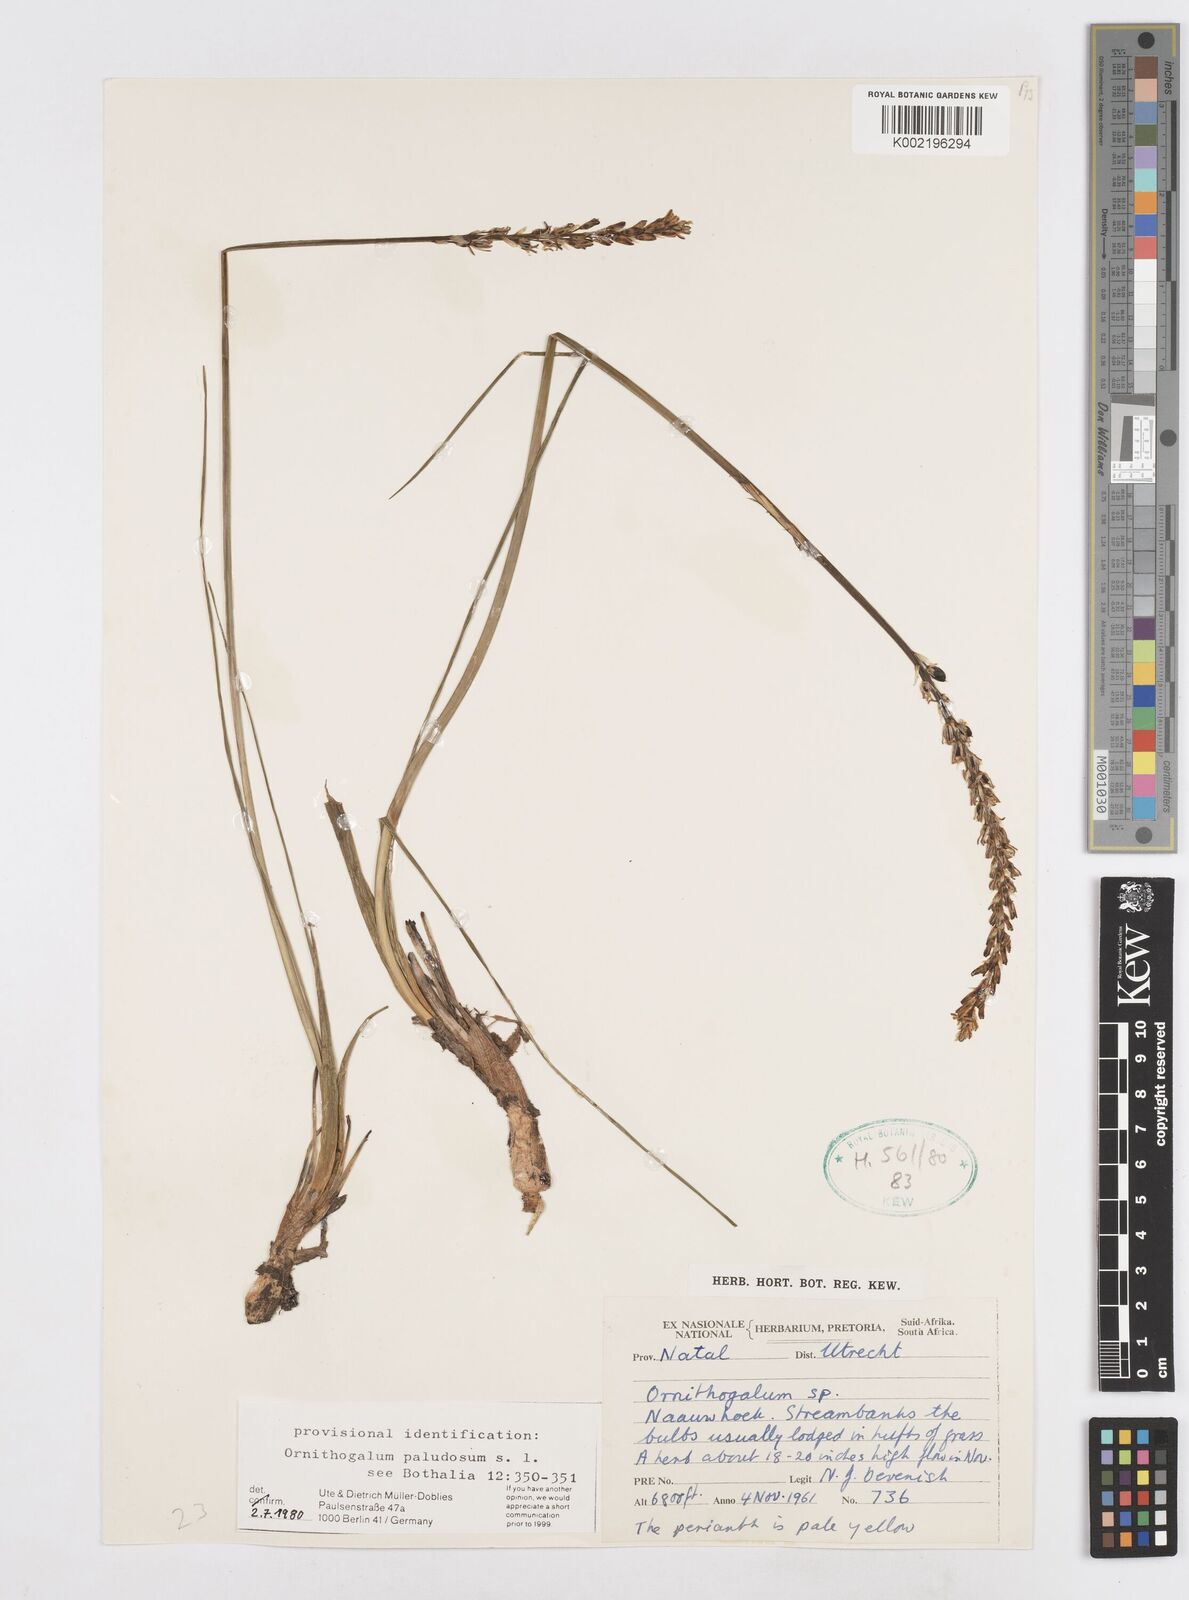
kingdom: Plantae
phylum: Tracheophyta
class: Liliopsida
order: Asparagales
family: Asparagaceae
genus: Ornithogalum
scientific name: Ornithogalum paludosum
